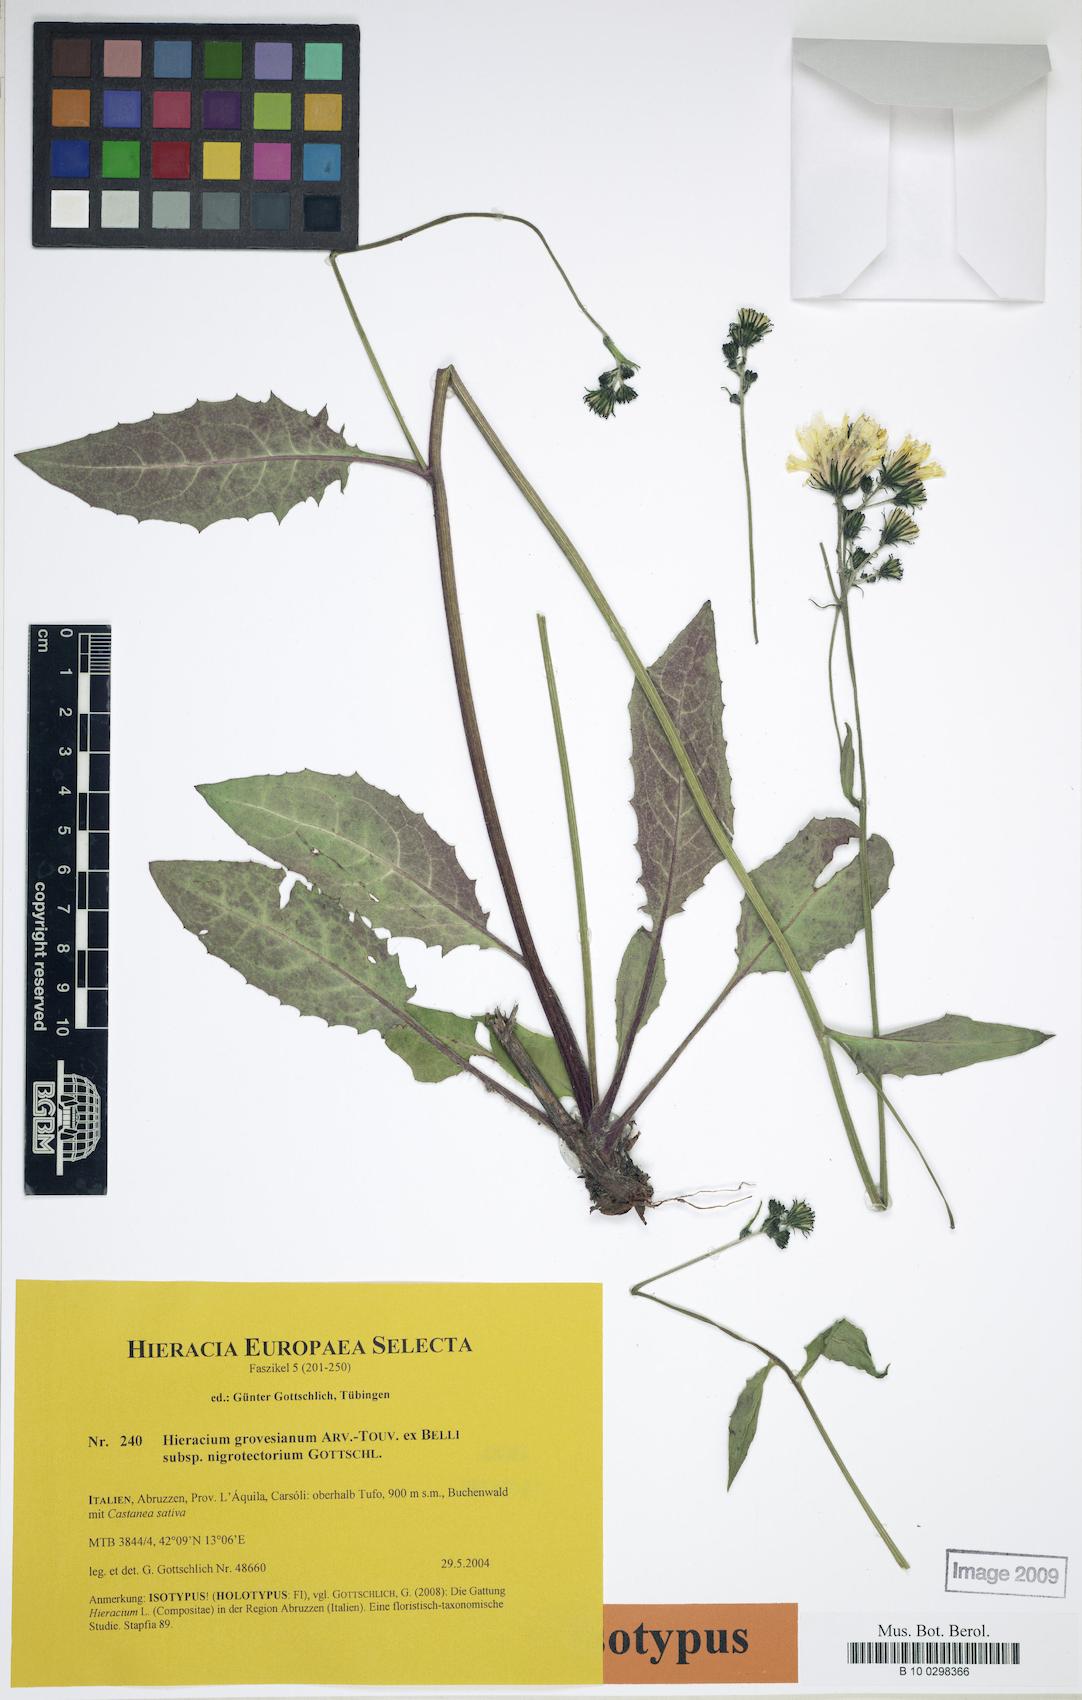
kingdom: Plantae
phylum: Tracheophyta
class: Magnoliopsida
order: Asterales
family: Asteraceae
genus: Hieracium
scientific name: Hieracium grovesianum
